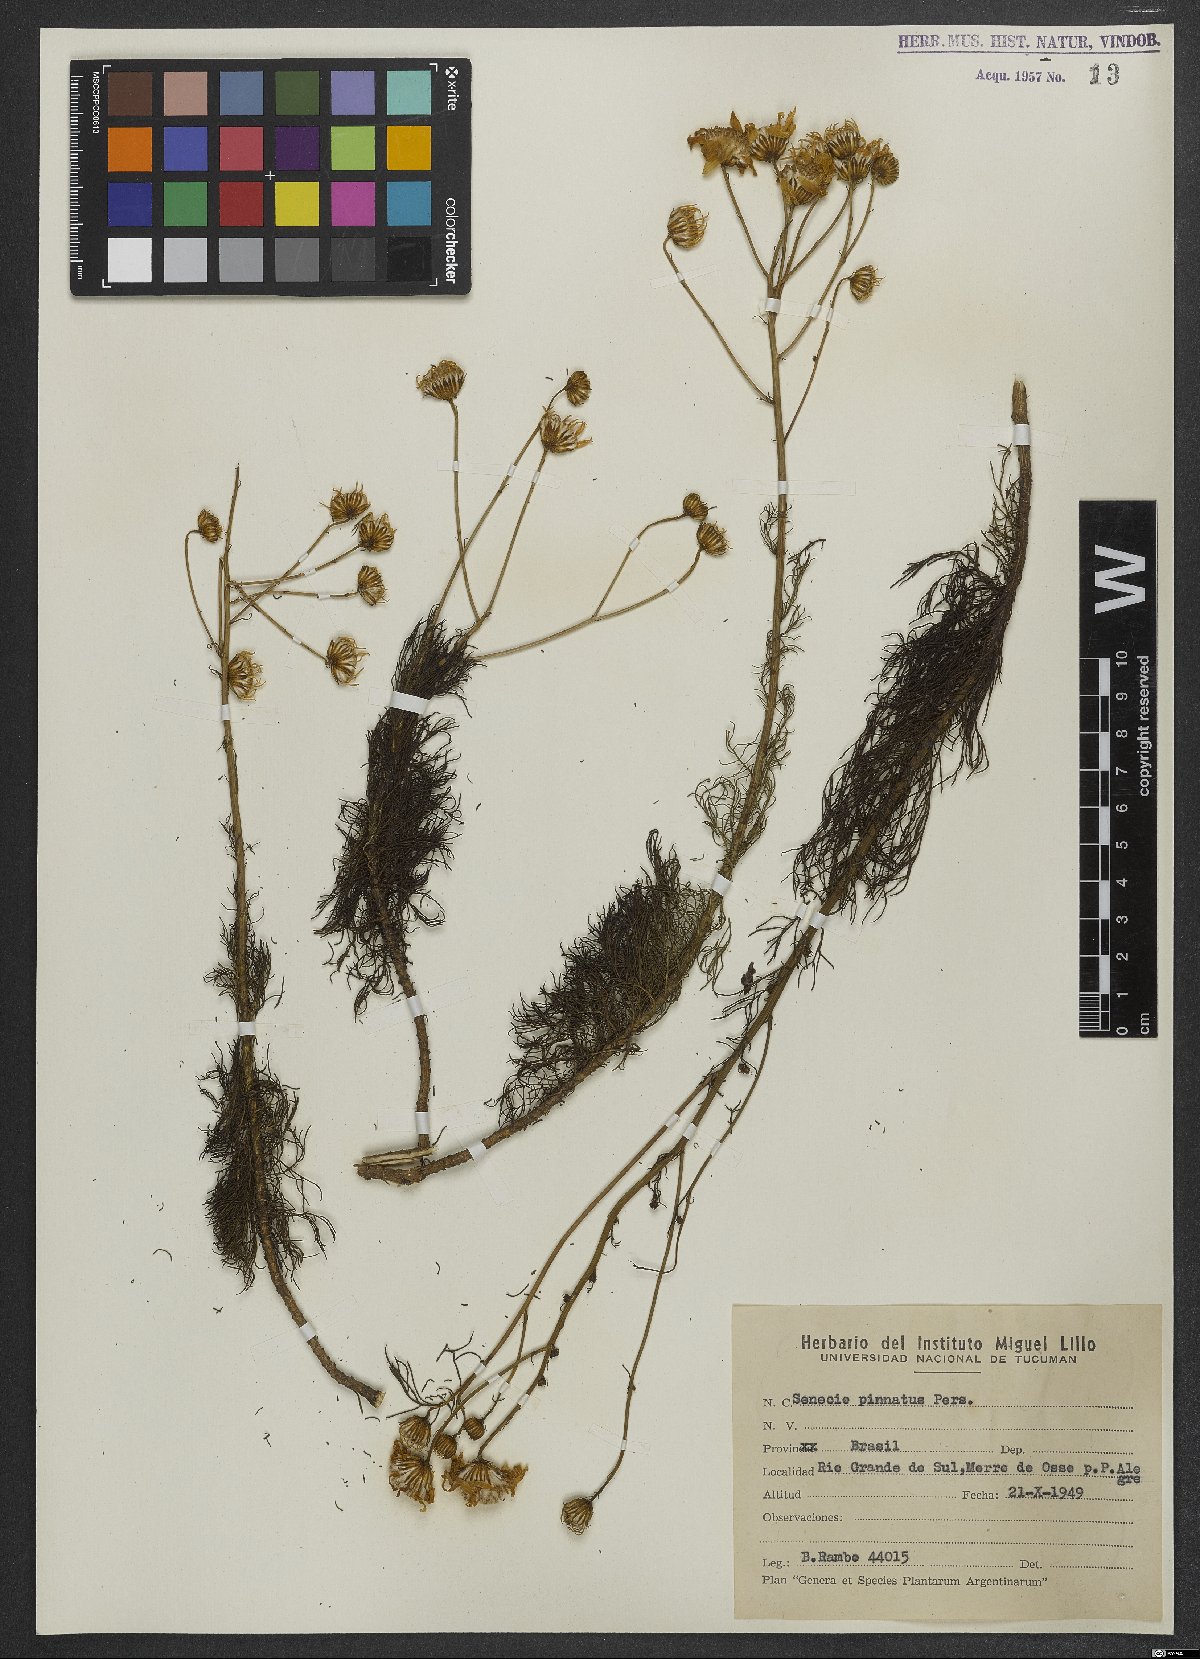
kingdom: Plantae
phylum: Tracheophyta
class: Magnoliopsida
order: Asterales
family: Asteraceae
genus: Senecio
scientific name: Senecio platensis
